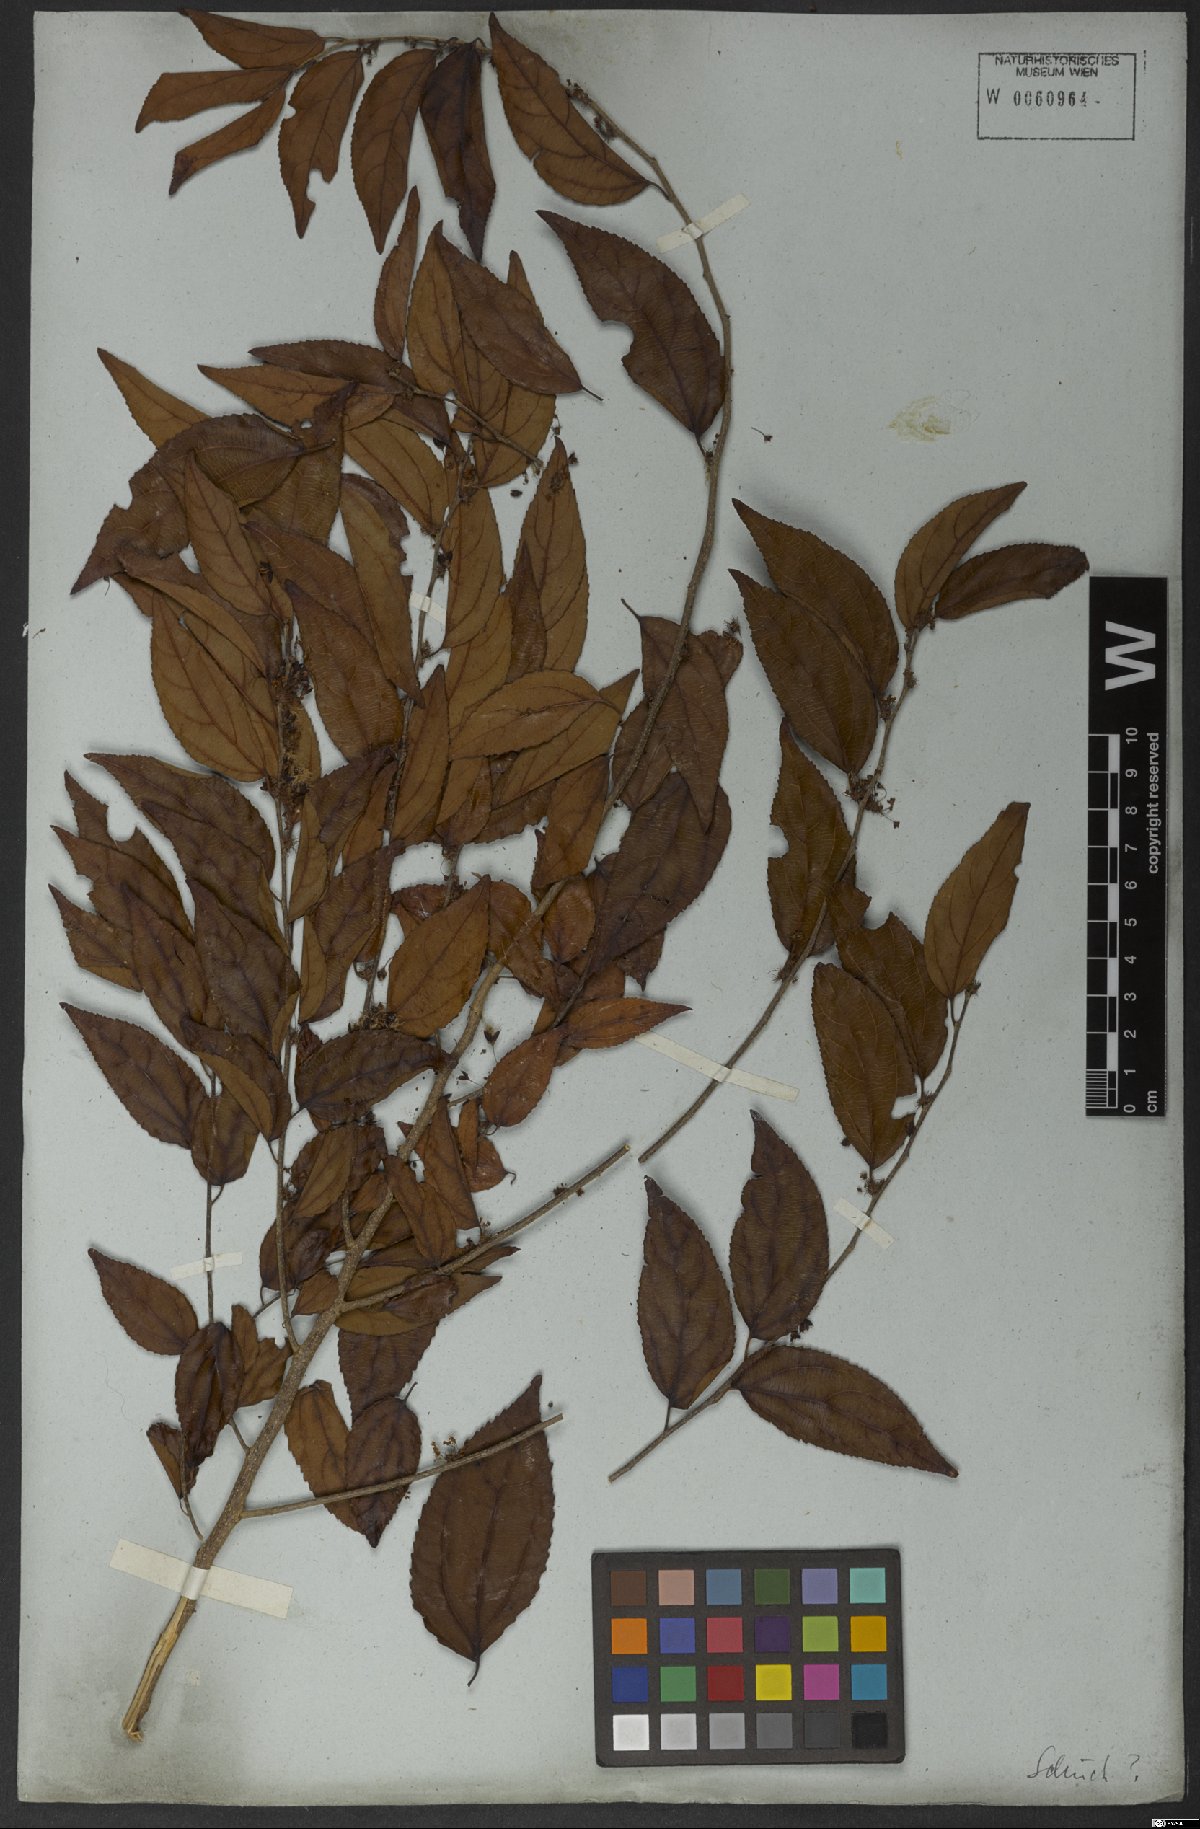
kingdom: Plantae
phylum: Tracheophyta
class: Magnoliopsida
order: Malpighiales
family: Salicaceae
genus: Casearia
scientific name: Casearia obliqua
